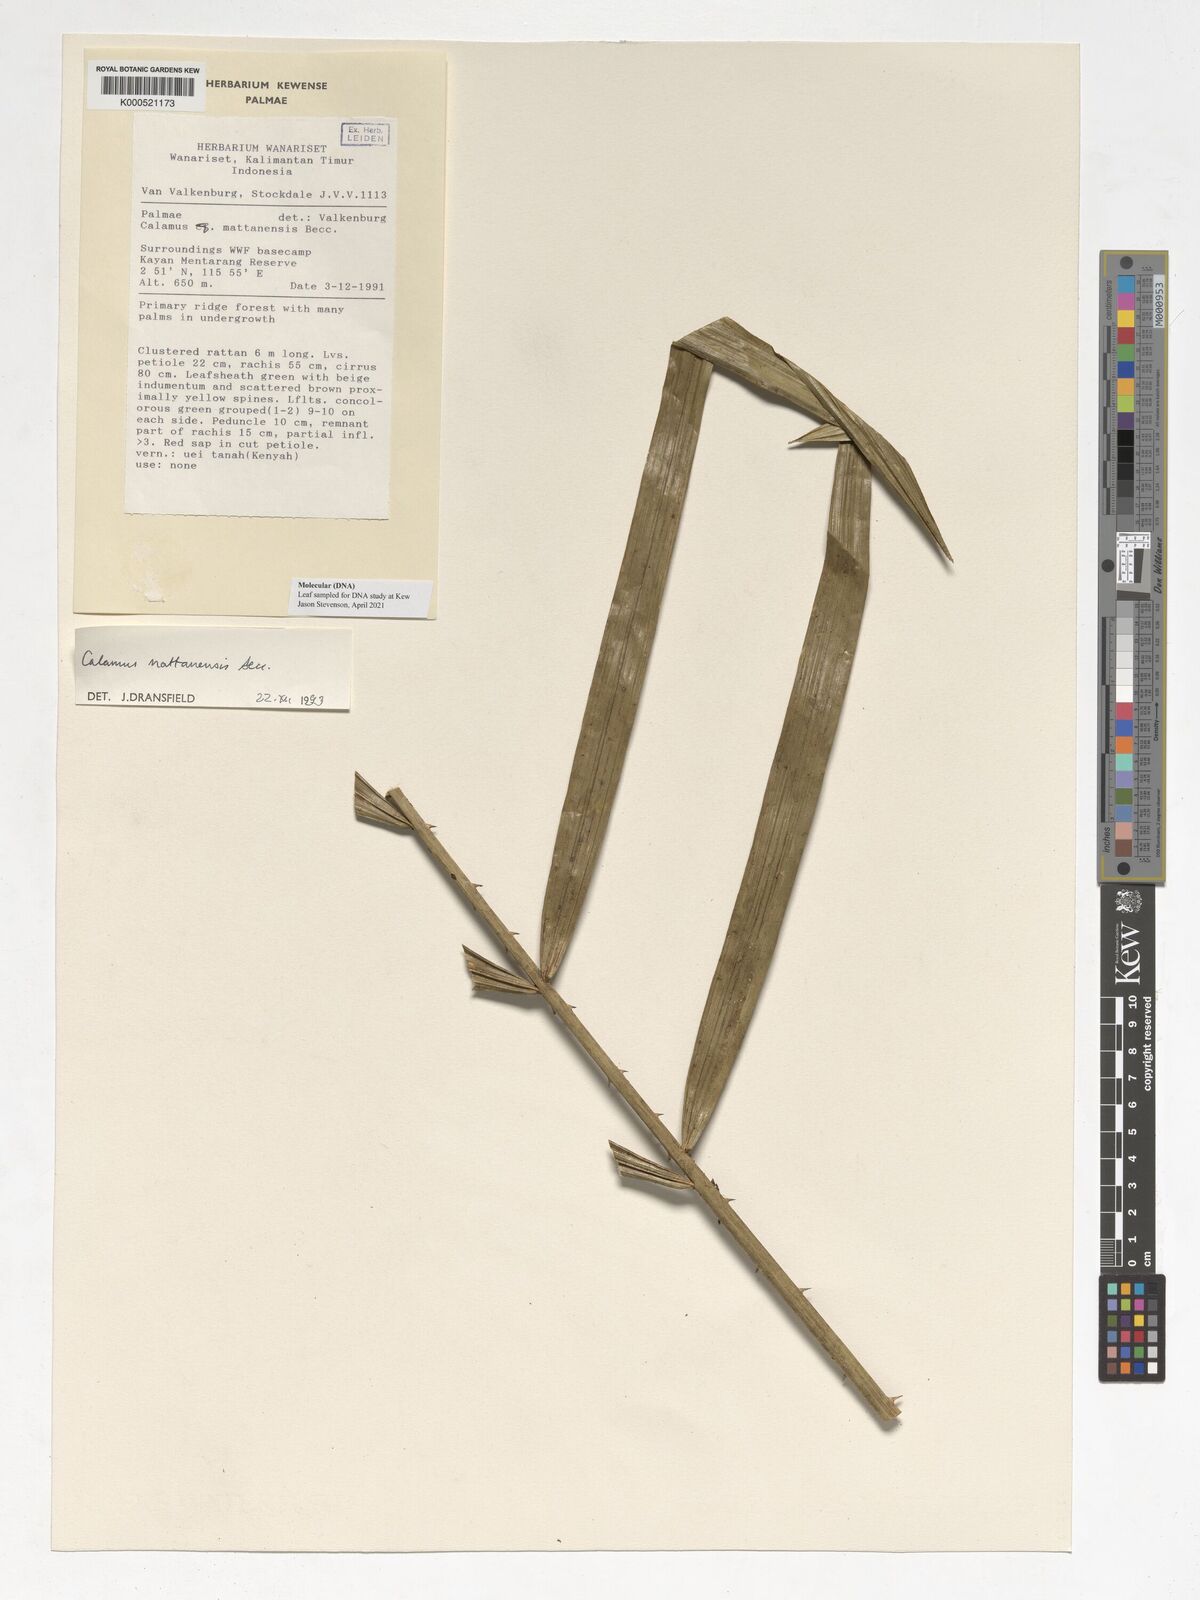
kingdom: Plantae
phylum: Tracheophyta
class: Liliopsida
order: Arecales
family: Arecaceae
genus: Calamus
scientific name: Calamus
